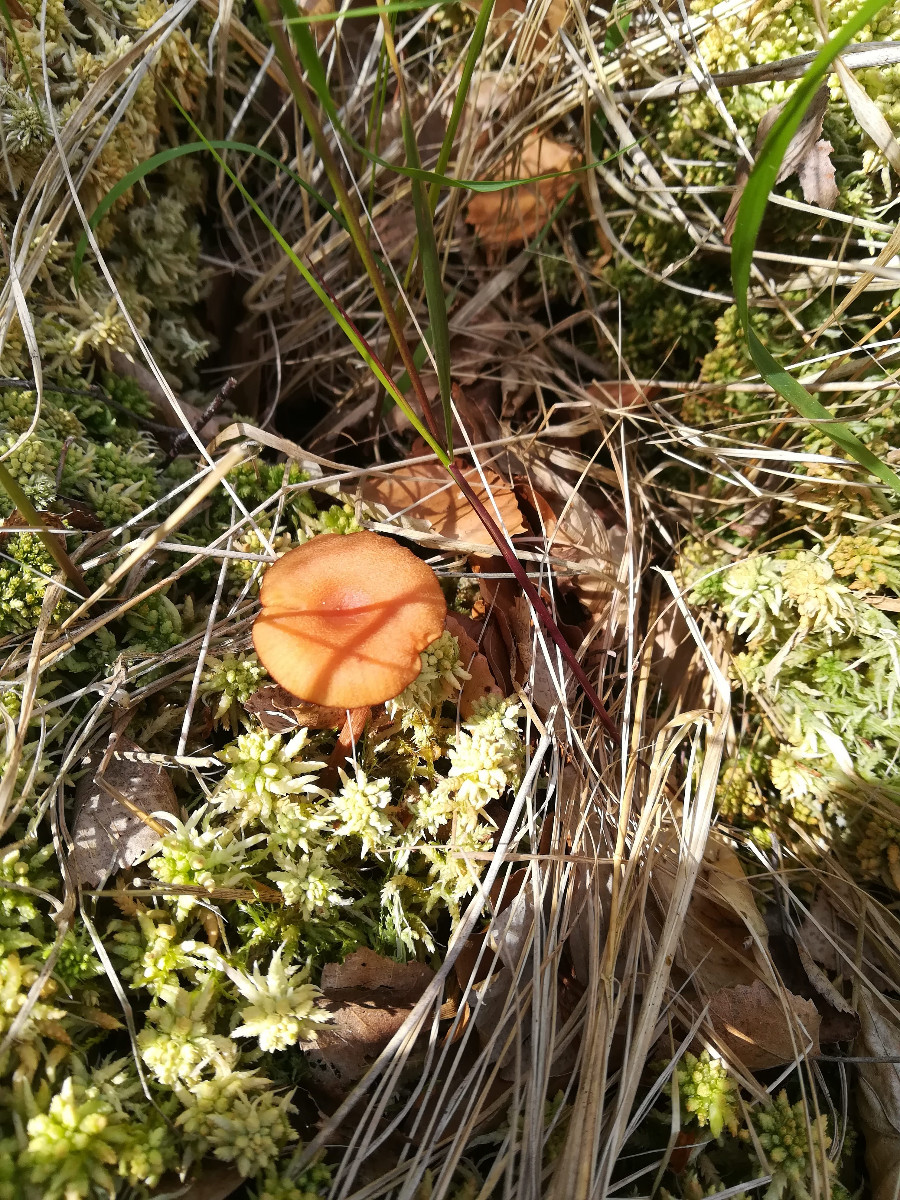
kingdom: Fungi
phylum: Basidiomycota
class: Agaricomycetes
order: Agaricales
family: Hydnangiaceae
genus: Laccaria
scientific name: Laccaria laccata
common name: rød ametysthat
